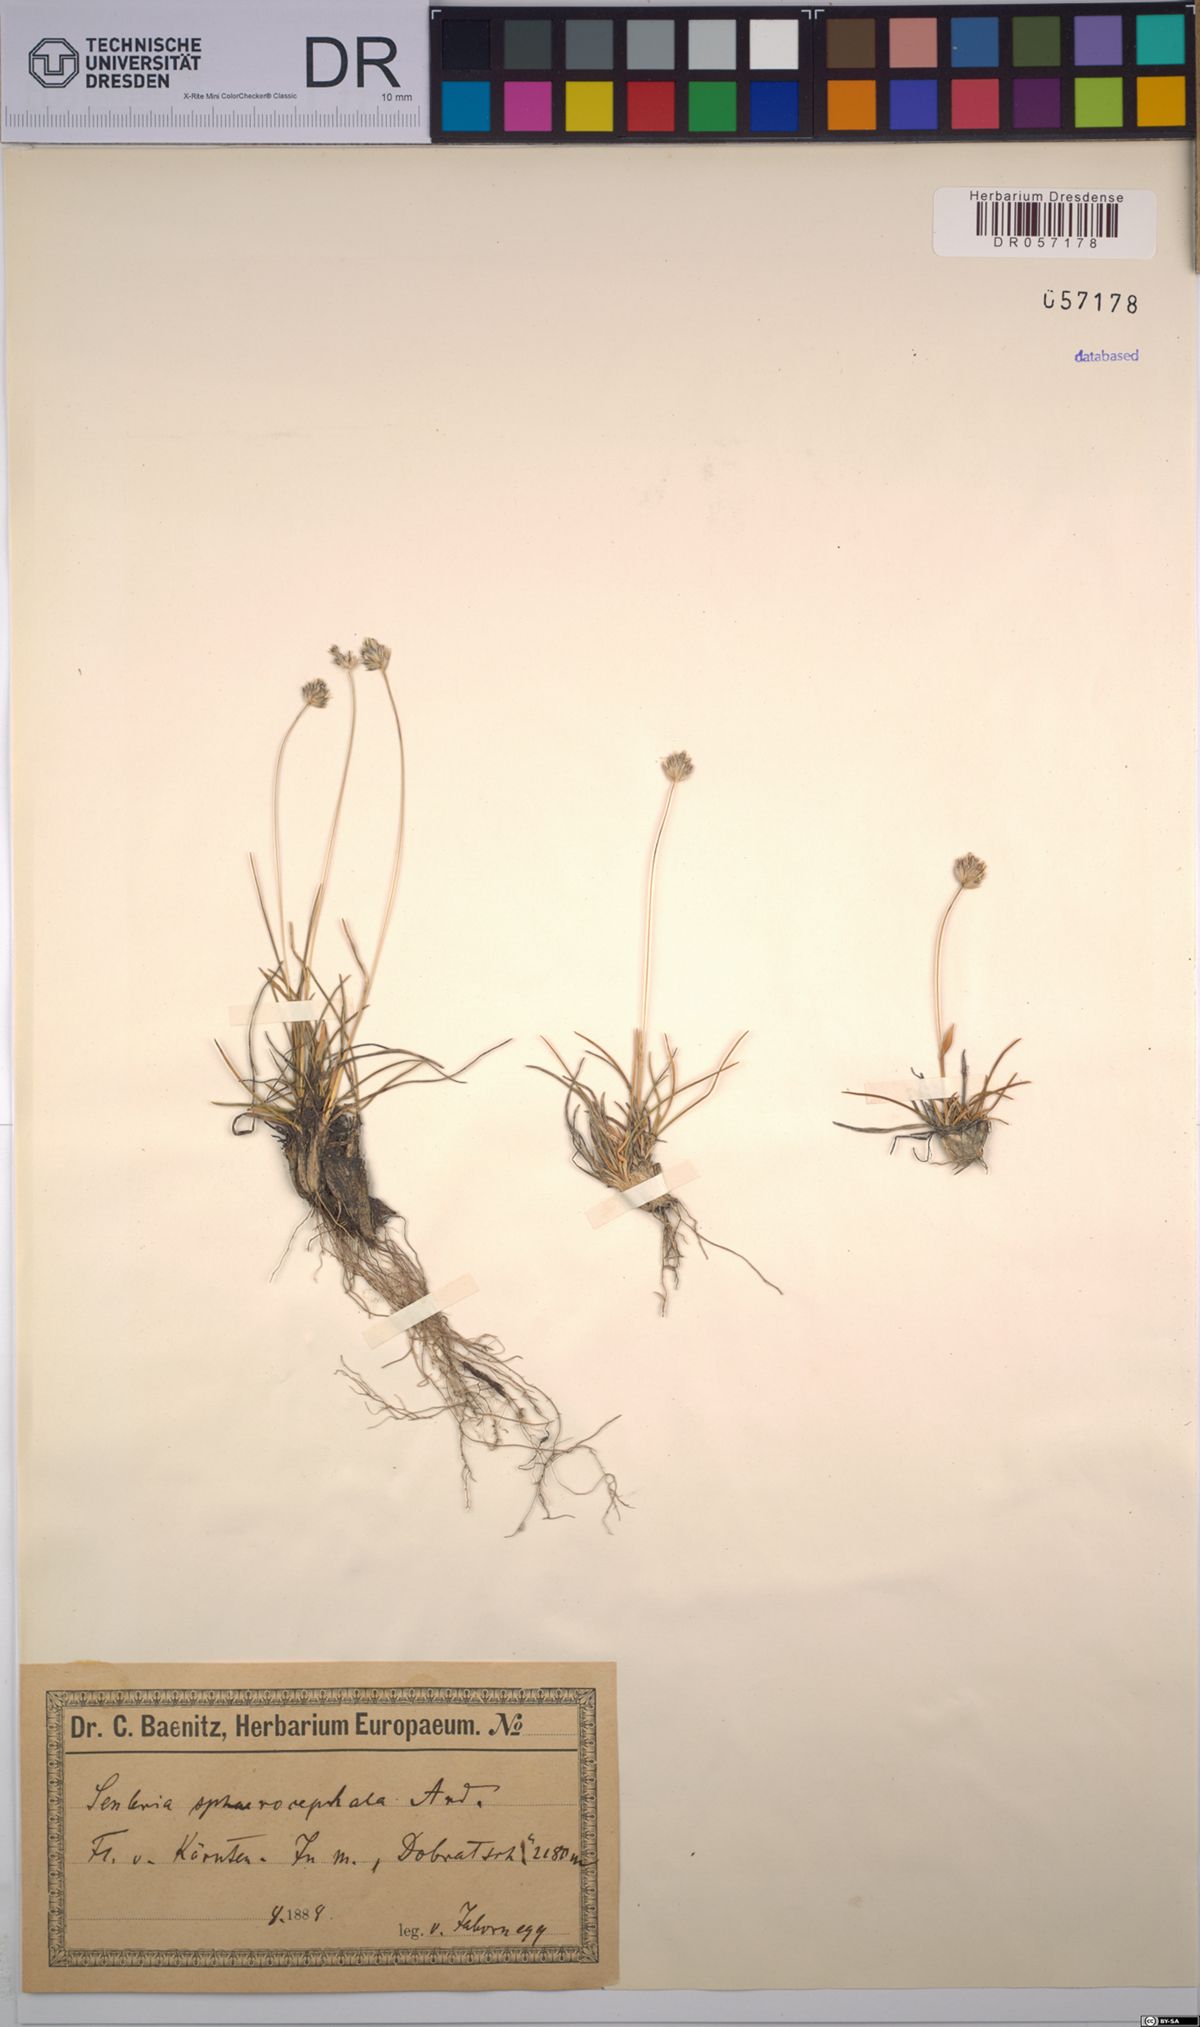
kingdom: Plantae
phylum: Tracheophyta
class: Liliopsida
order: Poales
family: Poaceae
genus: Sesleriella
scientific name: Sesleriella sphaerocephala
